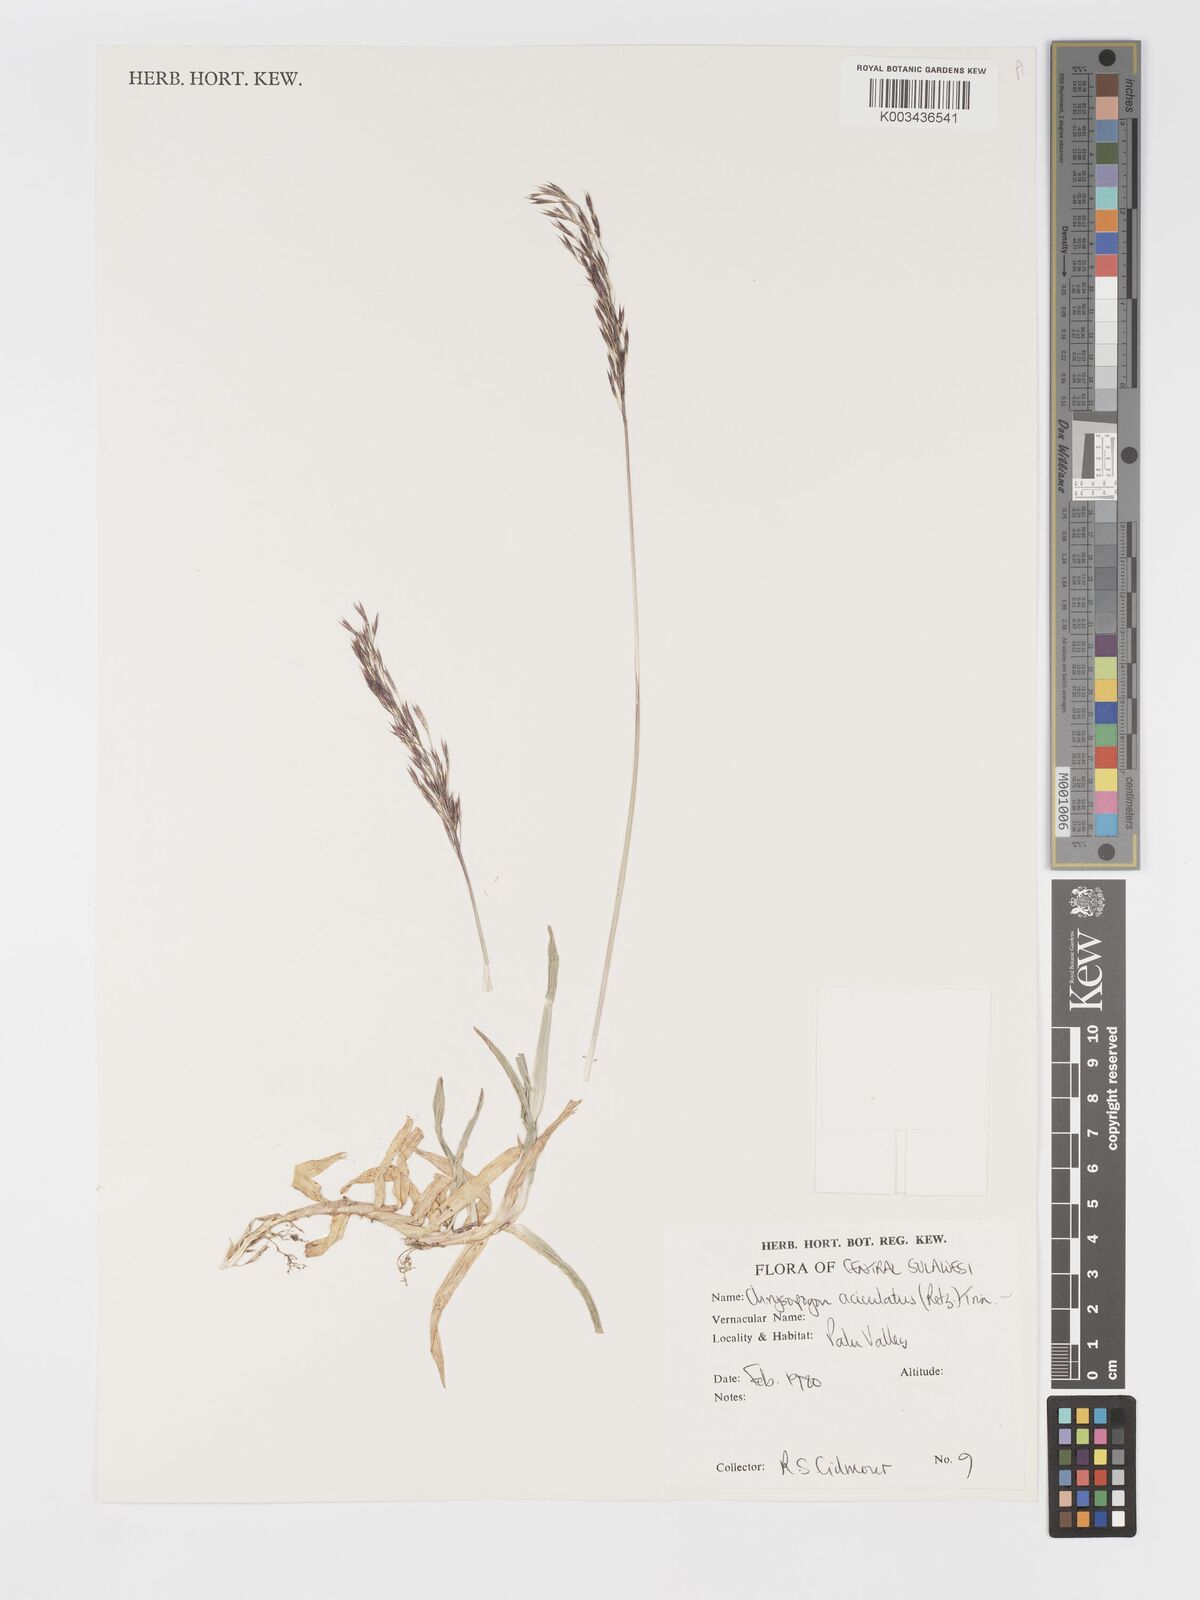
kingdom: Plantae
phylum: Tracheophyta
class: Liliopsida
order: Poales
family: Poaceae
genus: Chrysopogon
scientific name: Chrysopogon aciculatus
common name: Pilipiliula
